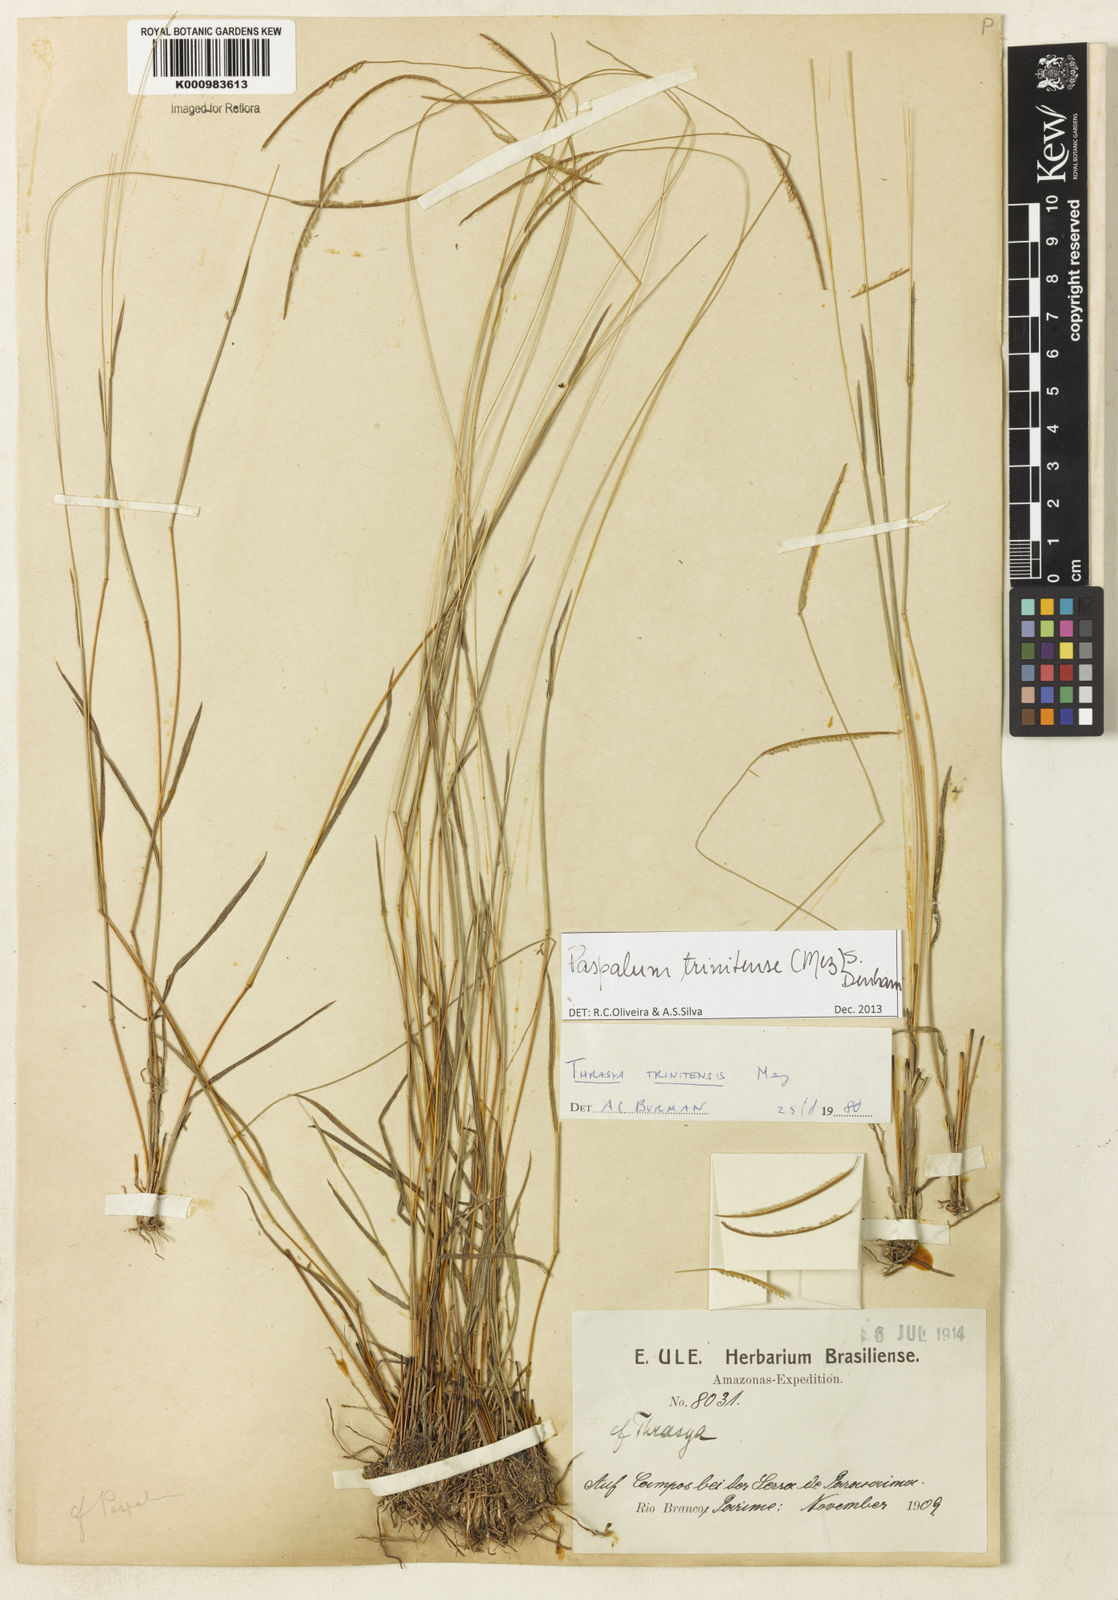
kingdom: Plantae
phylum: Tracheophyta
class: Liliopsida
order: Poales
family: Poaceae
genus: Paspalum
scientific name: Paspalum trinitense
